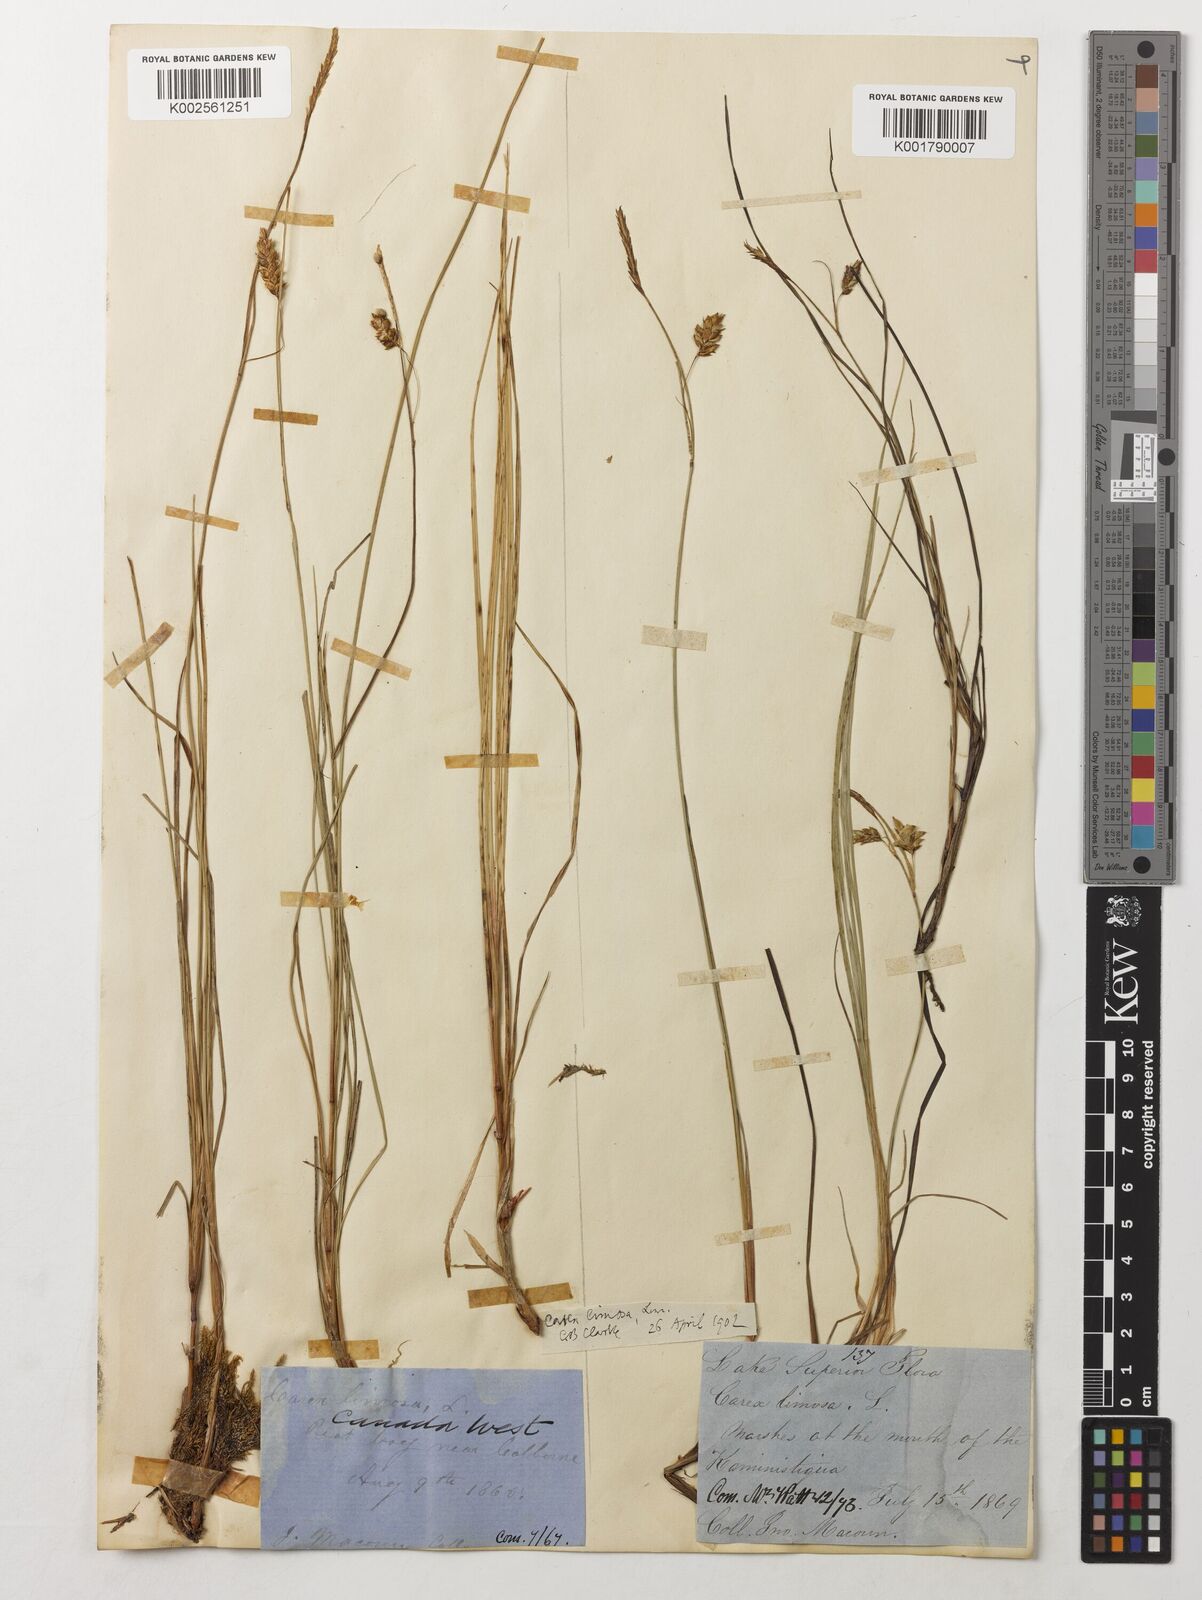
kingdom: Plantae
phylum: Tracheophyta
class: Liliopsida
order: Poales
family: Cyperaceae
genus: Carex
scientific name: Carex limosa
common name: Bog sedge
